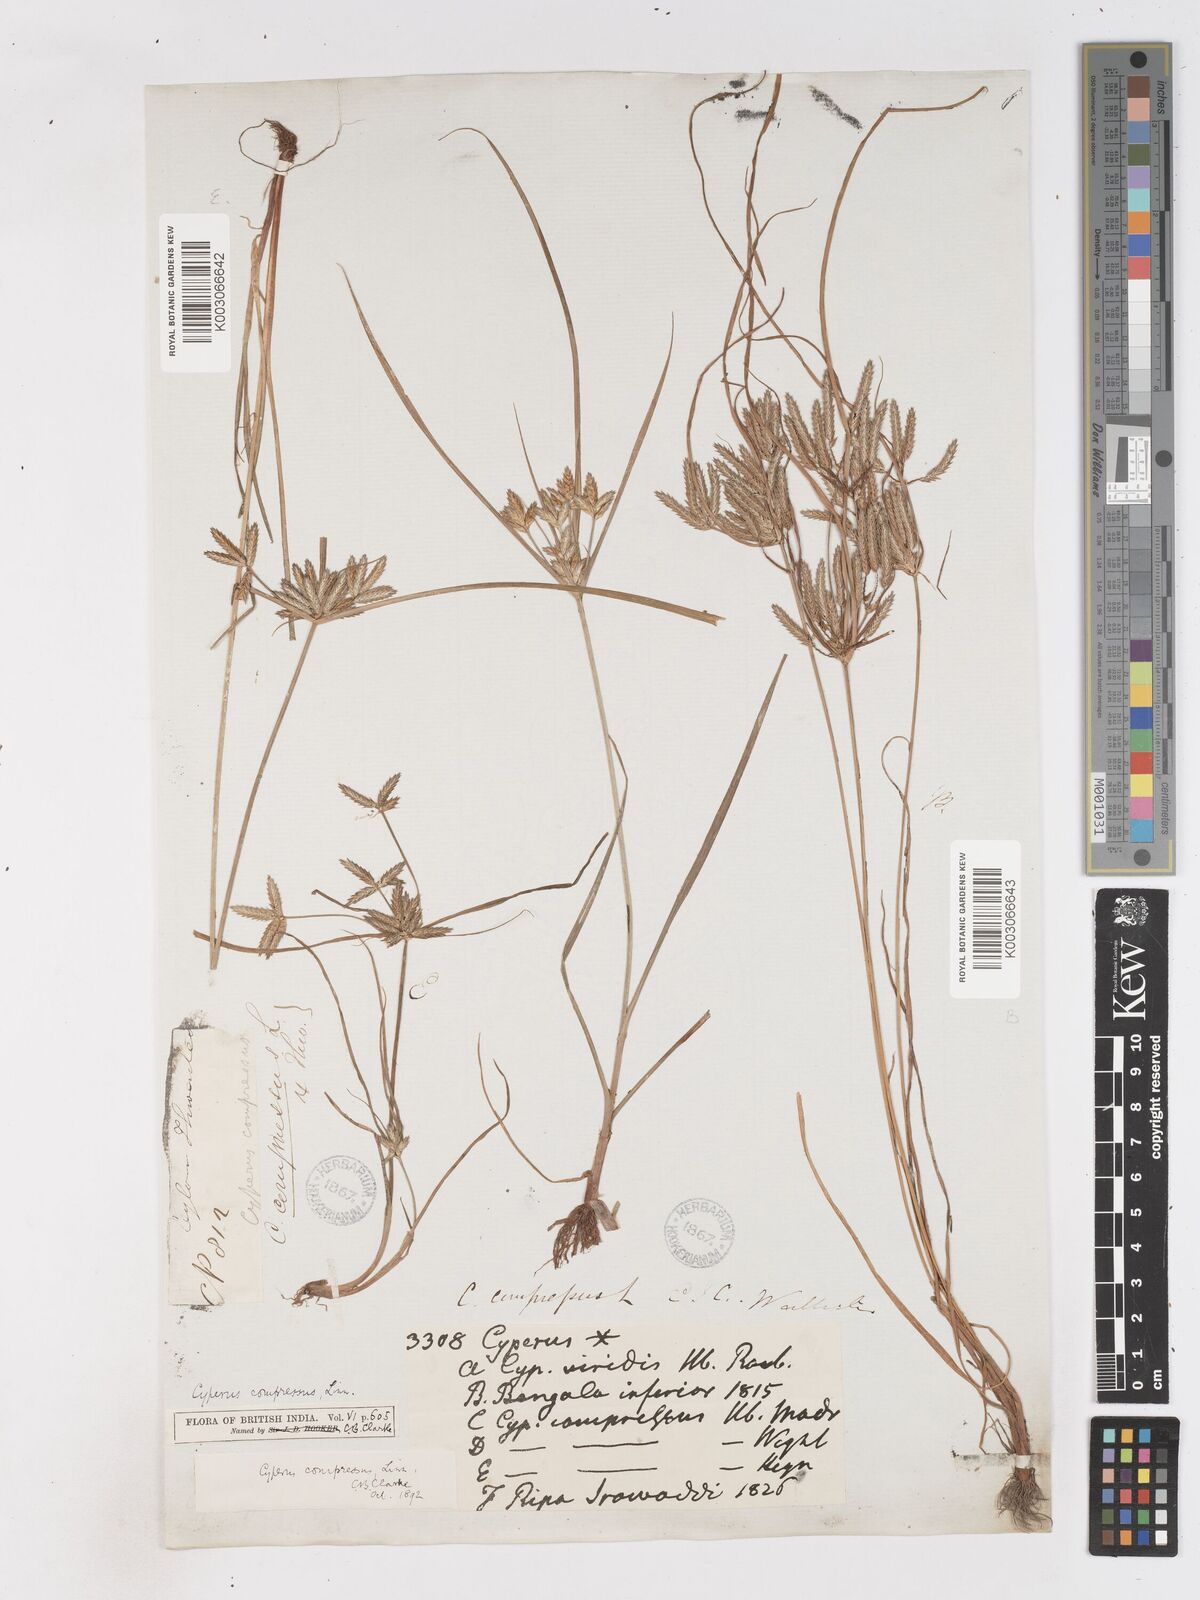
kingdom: Plantae
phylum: Tracheophyta
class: Liliopsida
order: Poales
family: Cyperaceae
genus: Cyperus
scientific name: Cyperus compressus
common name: Poorland flatsedge
